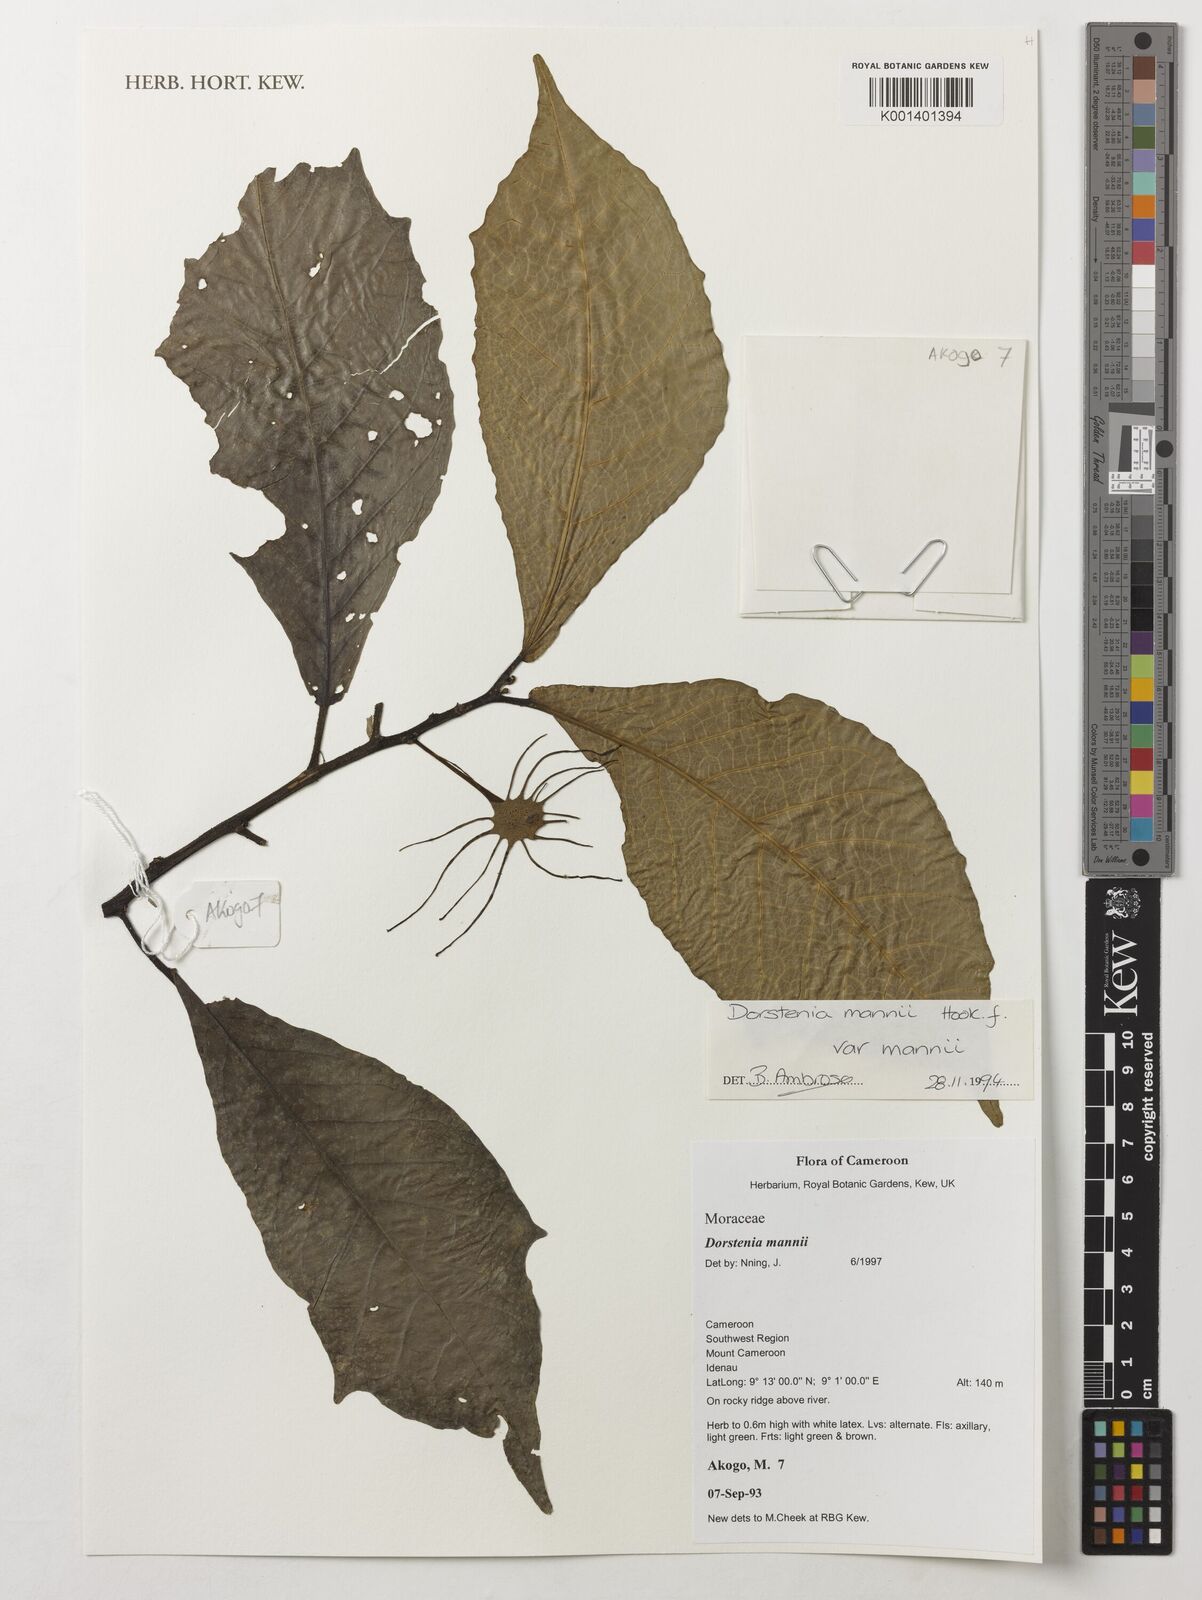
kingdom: Plantae
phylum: Tracheophyta
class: Magnoliopsida
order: Rosales
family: Moraceae
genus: Dorstenia
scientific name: Dorstenia mannii
